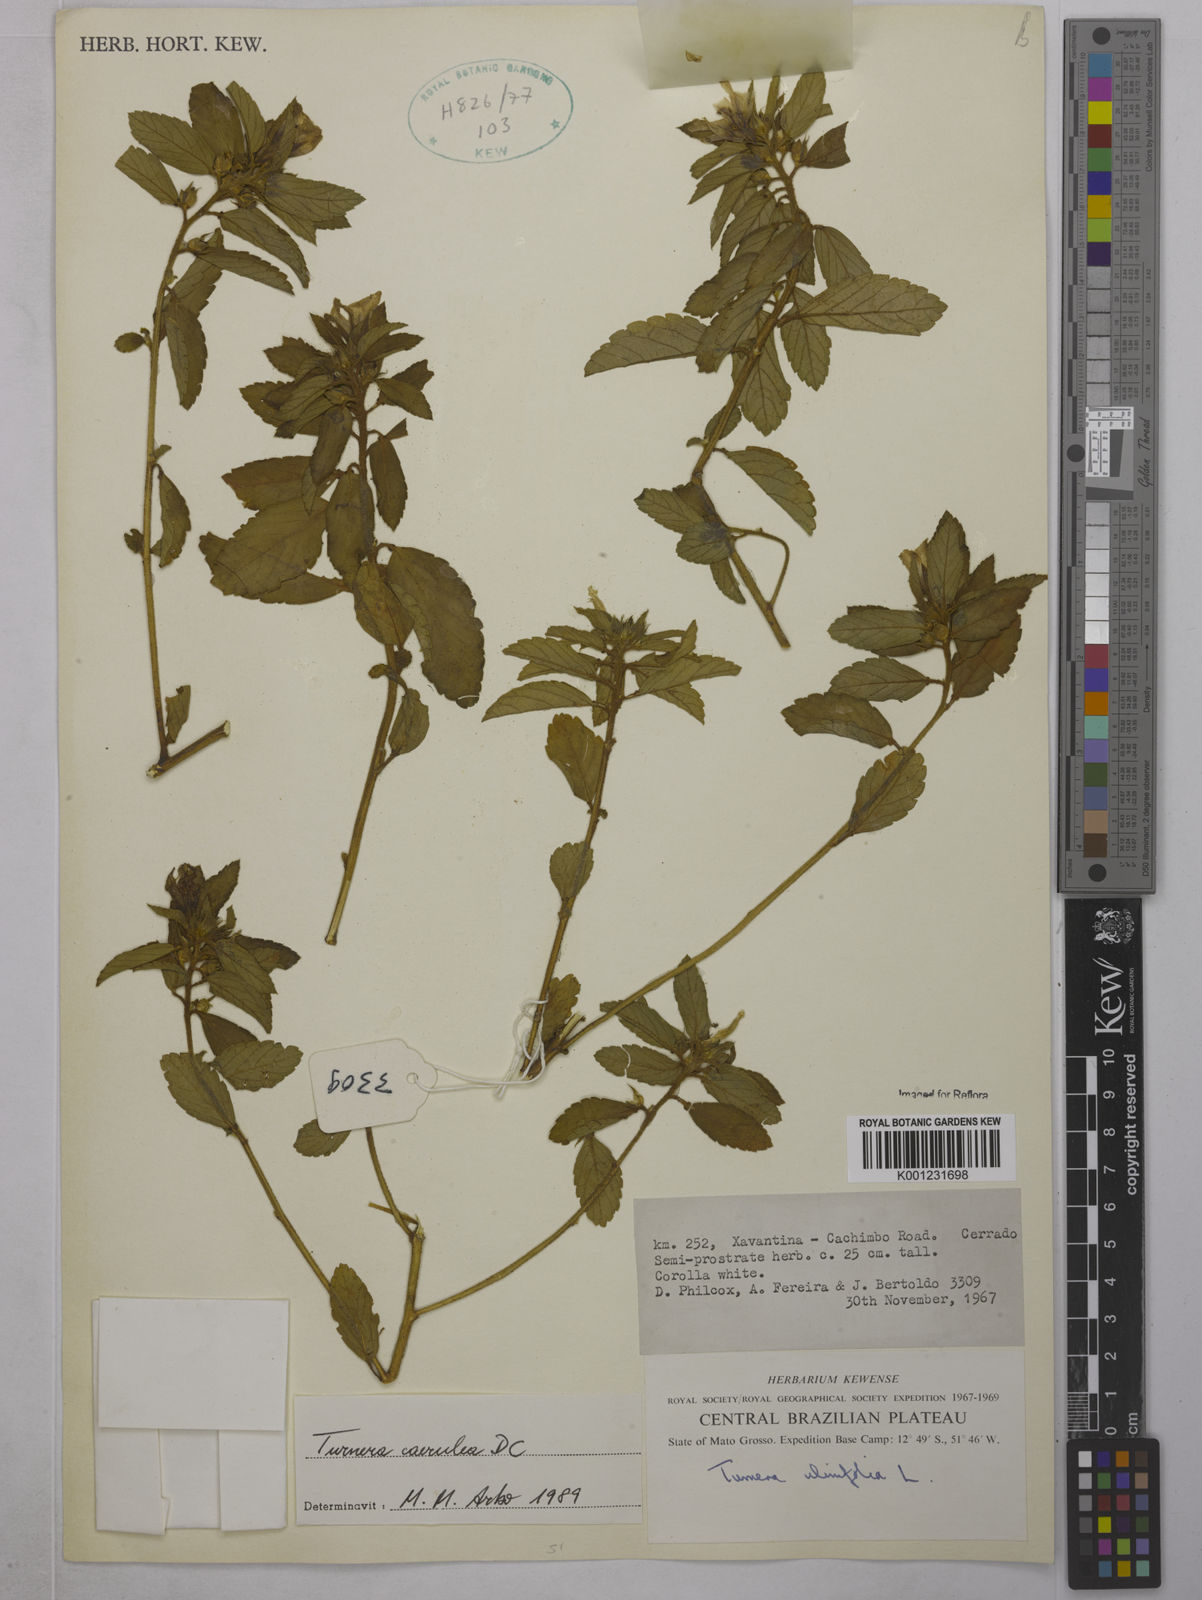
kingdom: Plantae
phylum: Tracheophyta
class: Magnoliopsida
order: Malpighiales
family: Turneraceae
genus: Turnera
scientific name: Turnera
